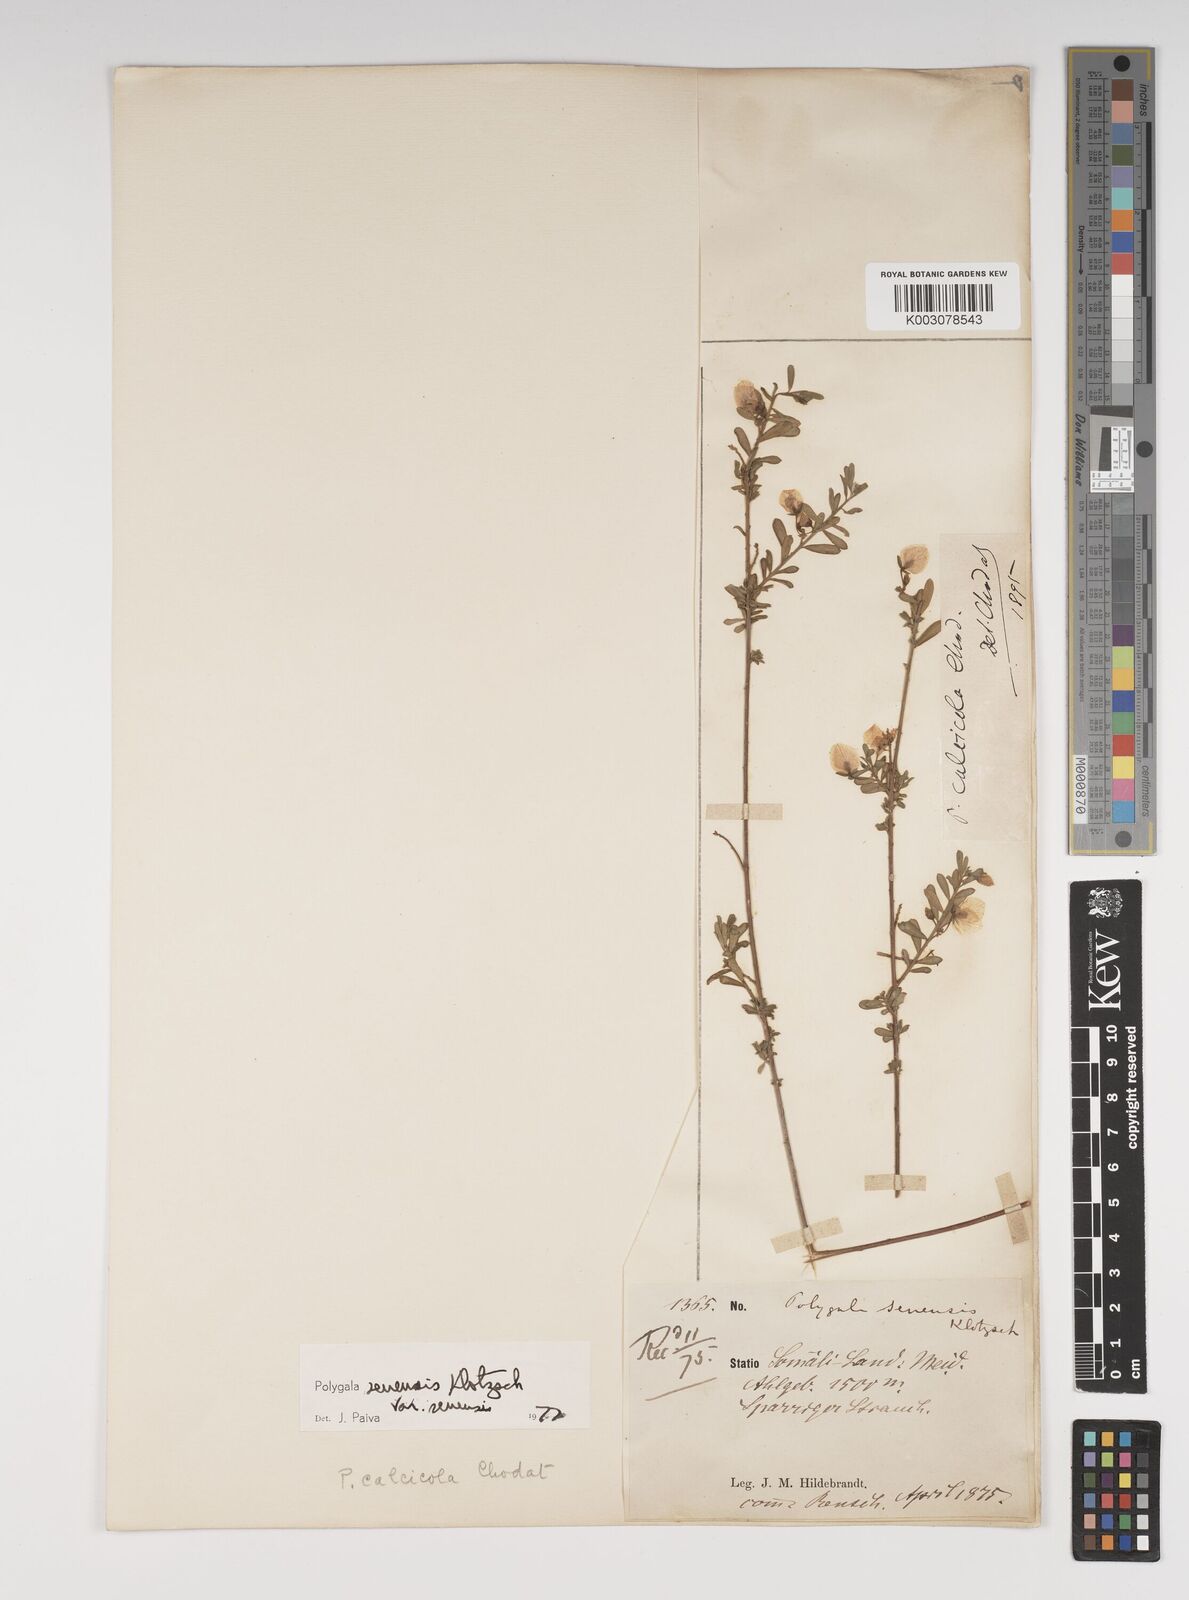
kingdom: Plantae
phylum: Tracheophyta
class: Magnoliopsida
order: Fabales
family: Polygalaceae
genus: Polygala
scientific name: Polygala senensis
